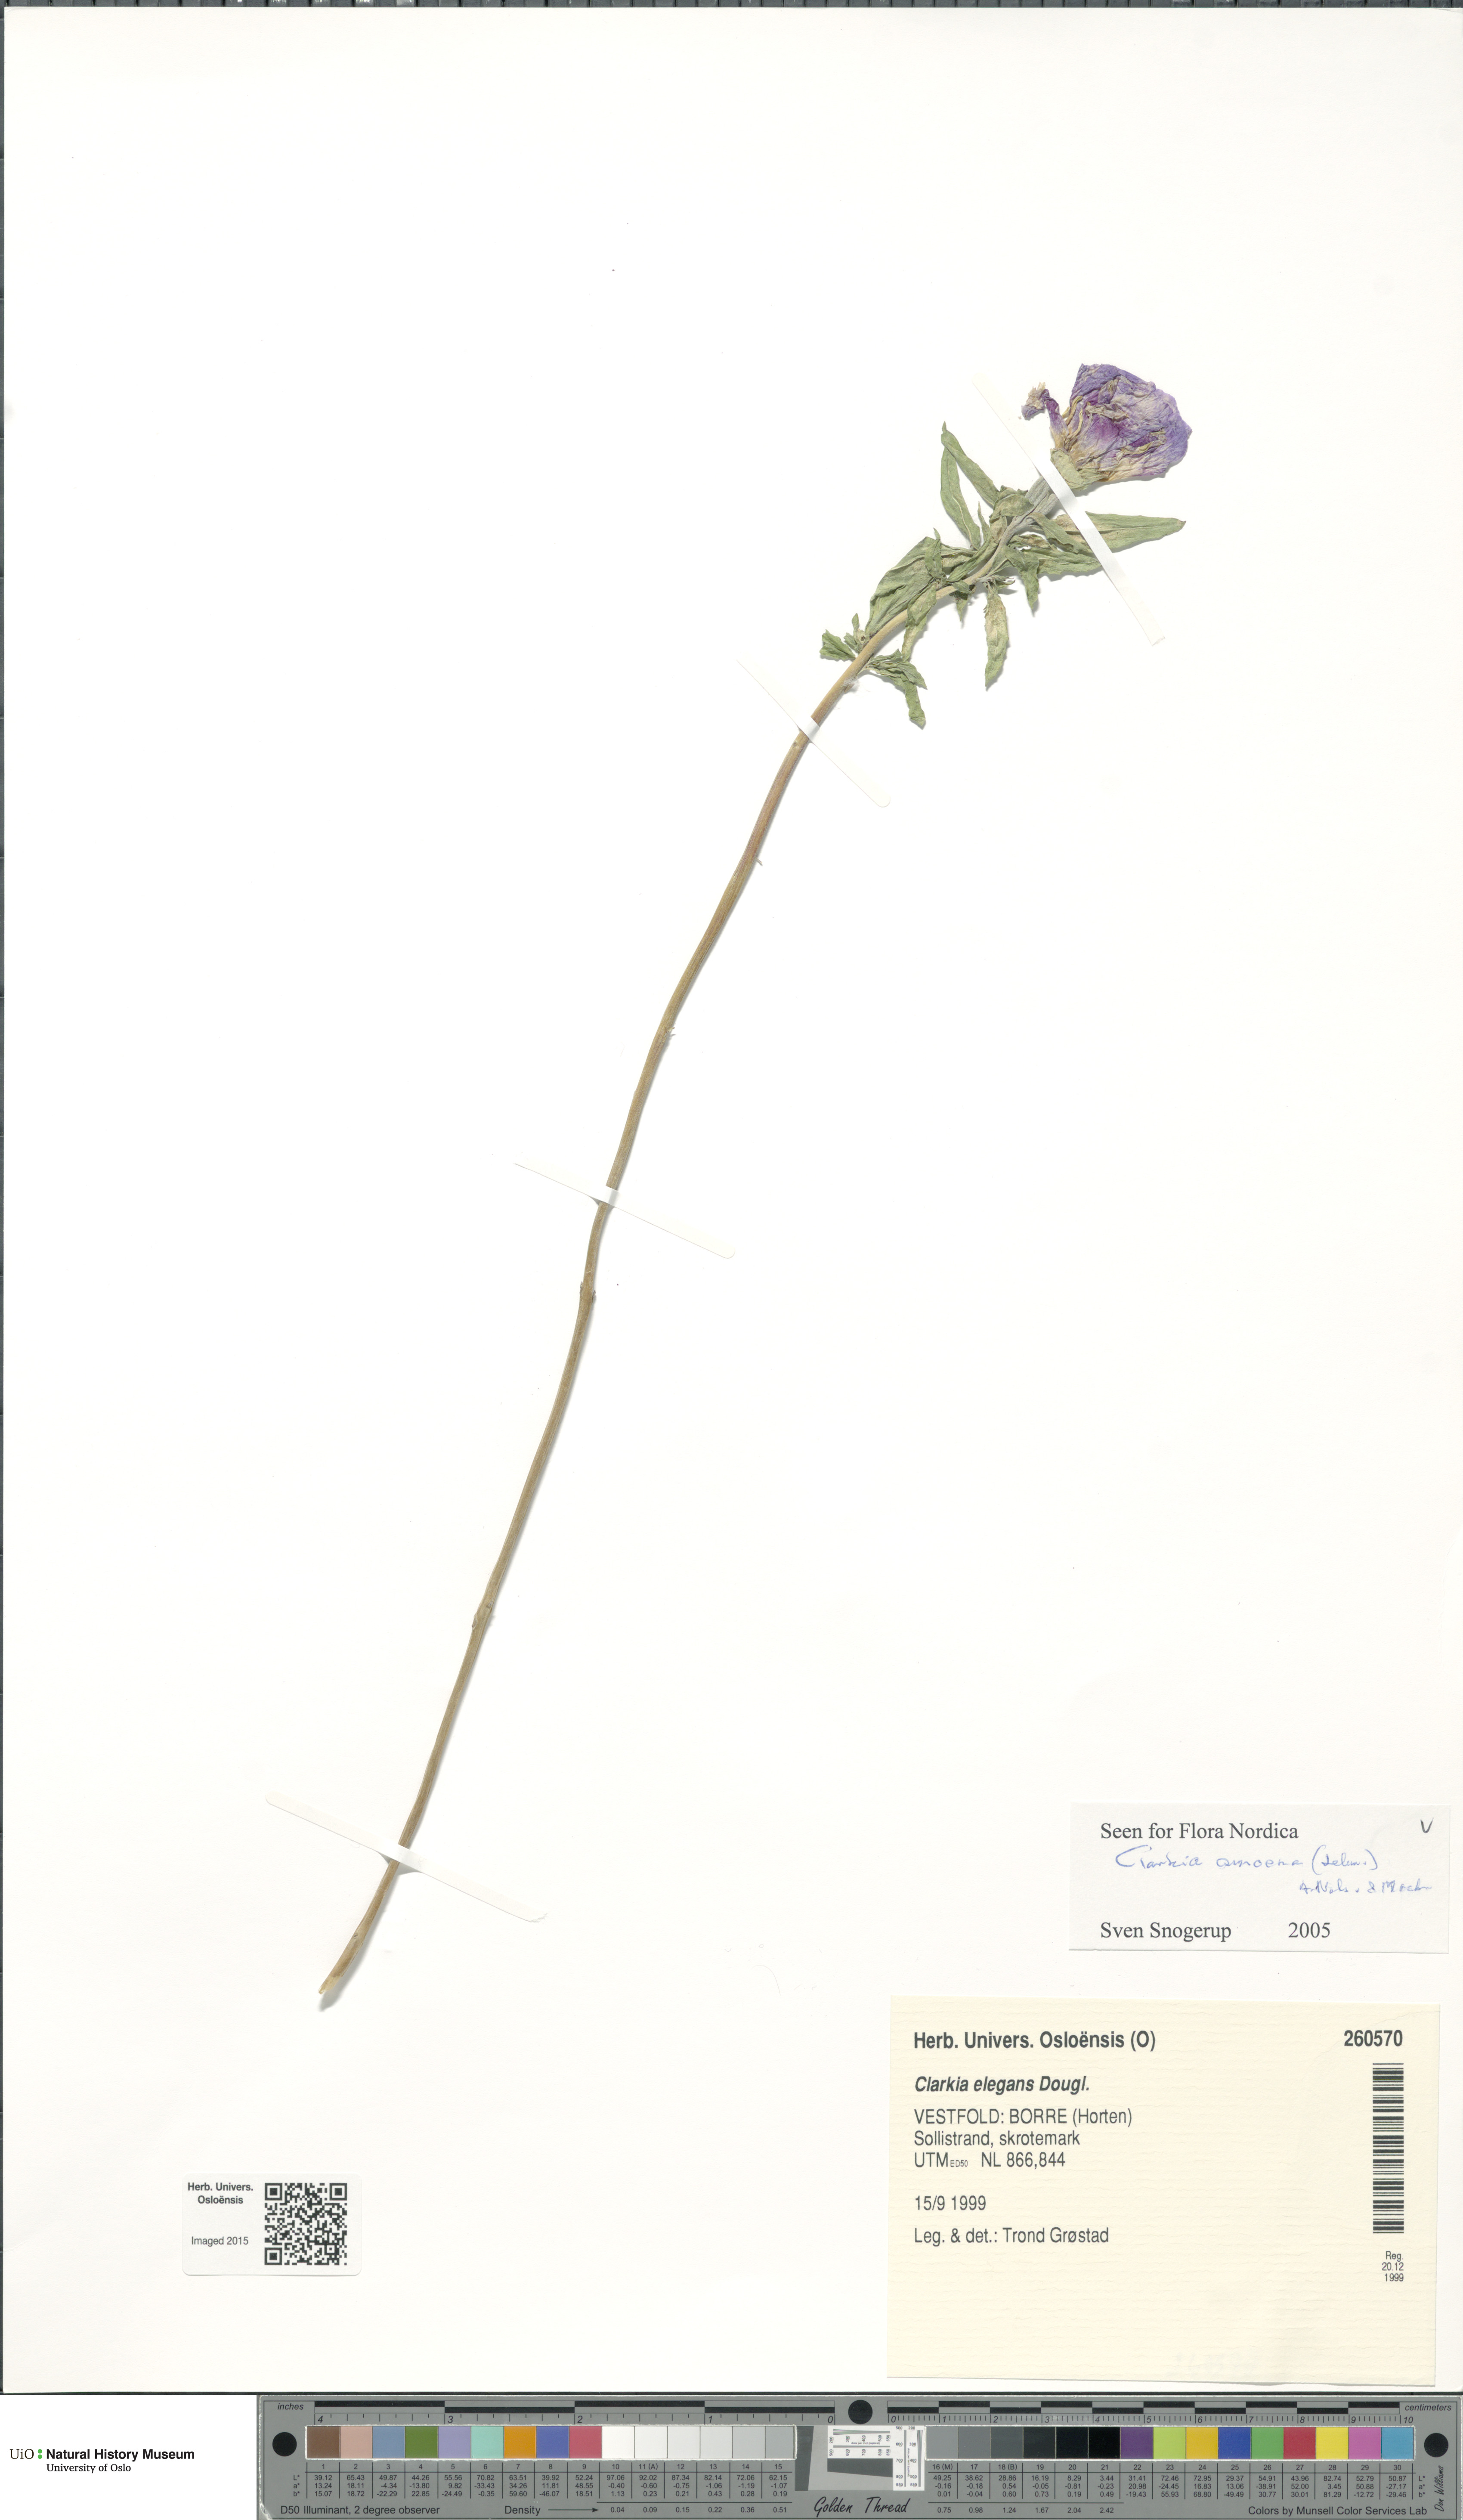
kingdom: Plantae
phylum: Tracheophyta
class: Magnoliopsida
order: Myrtales
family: Onagraceae
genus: Clarkia
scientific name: Clarkia amoena
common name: Godetia
